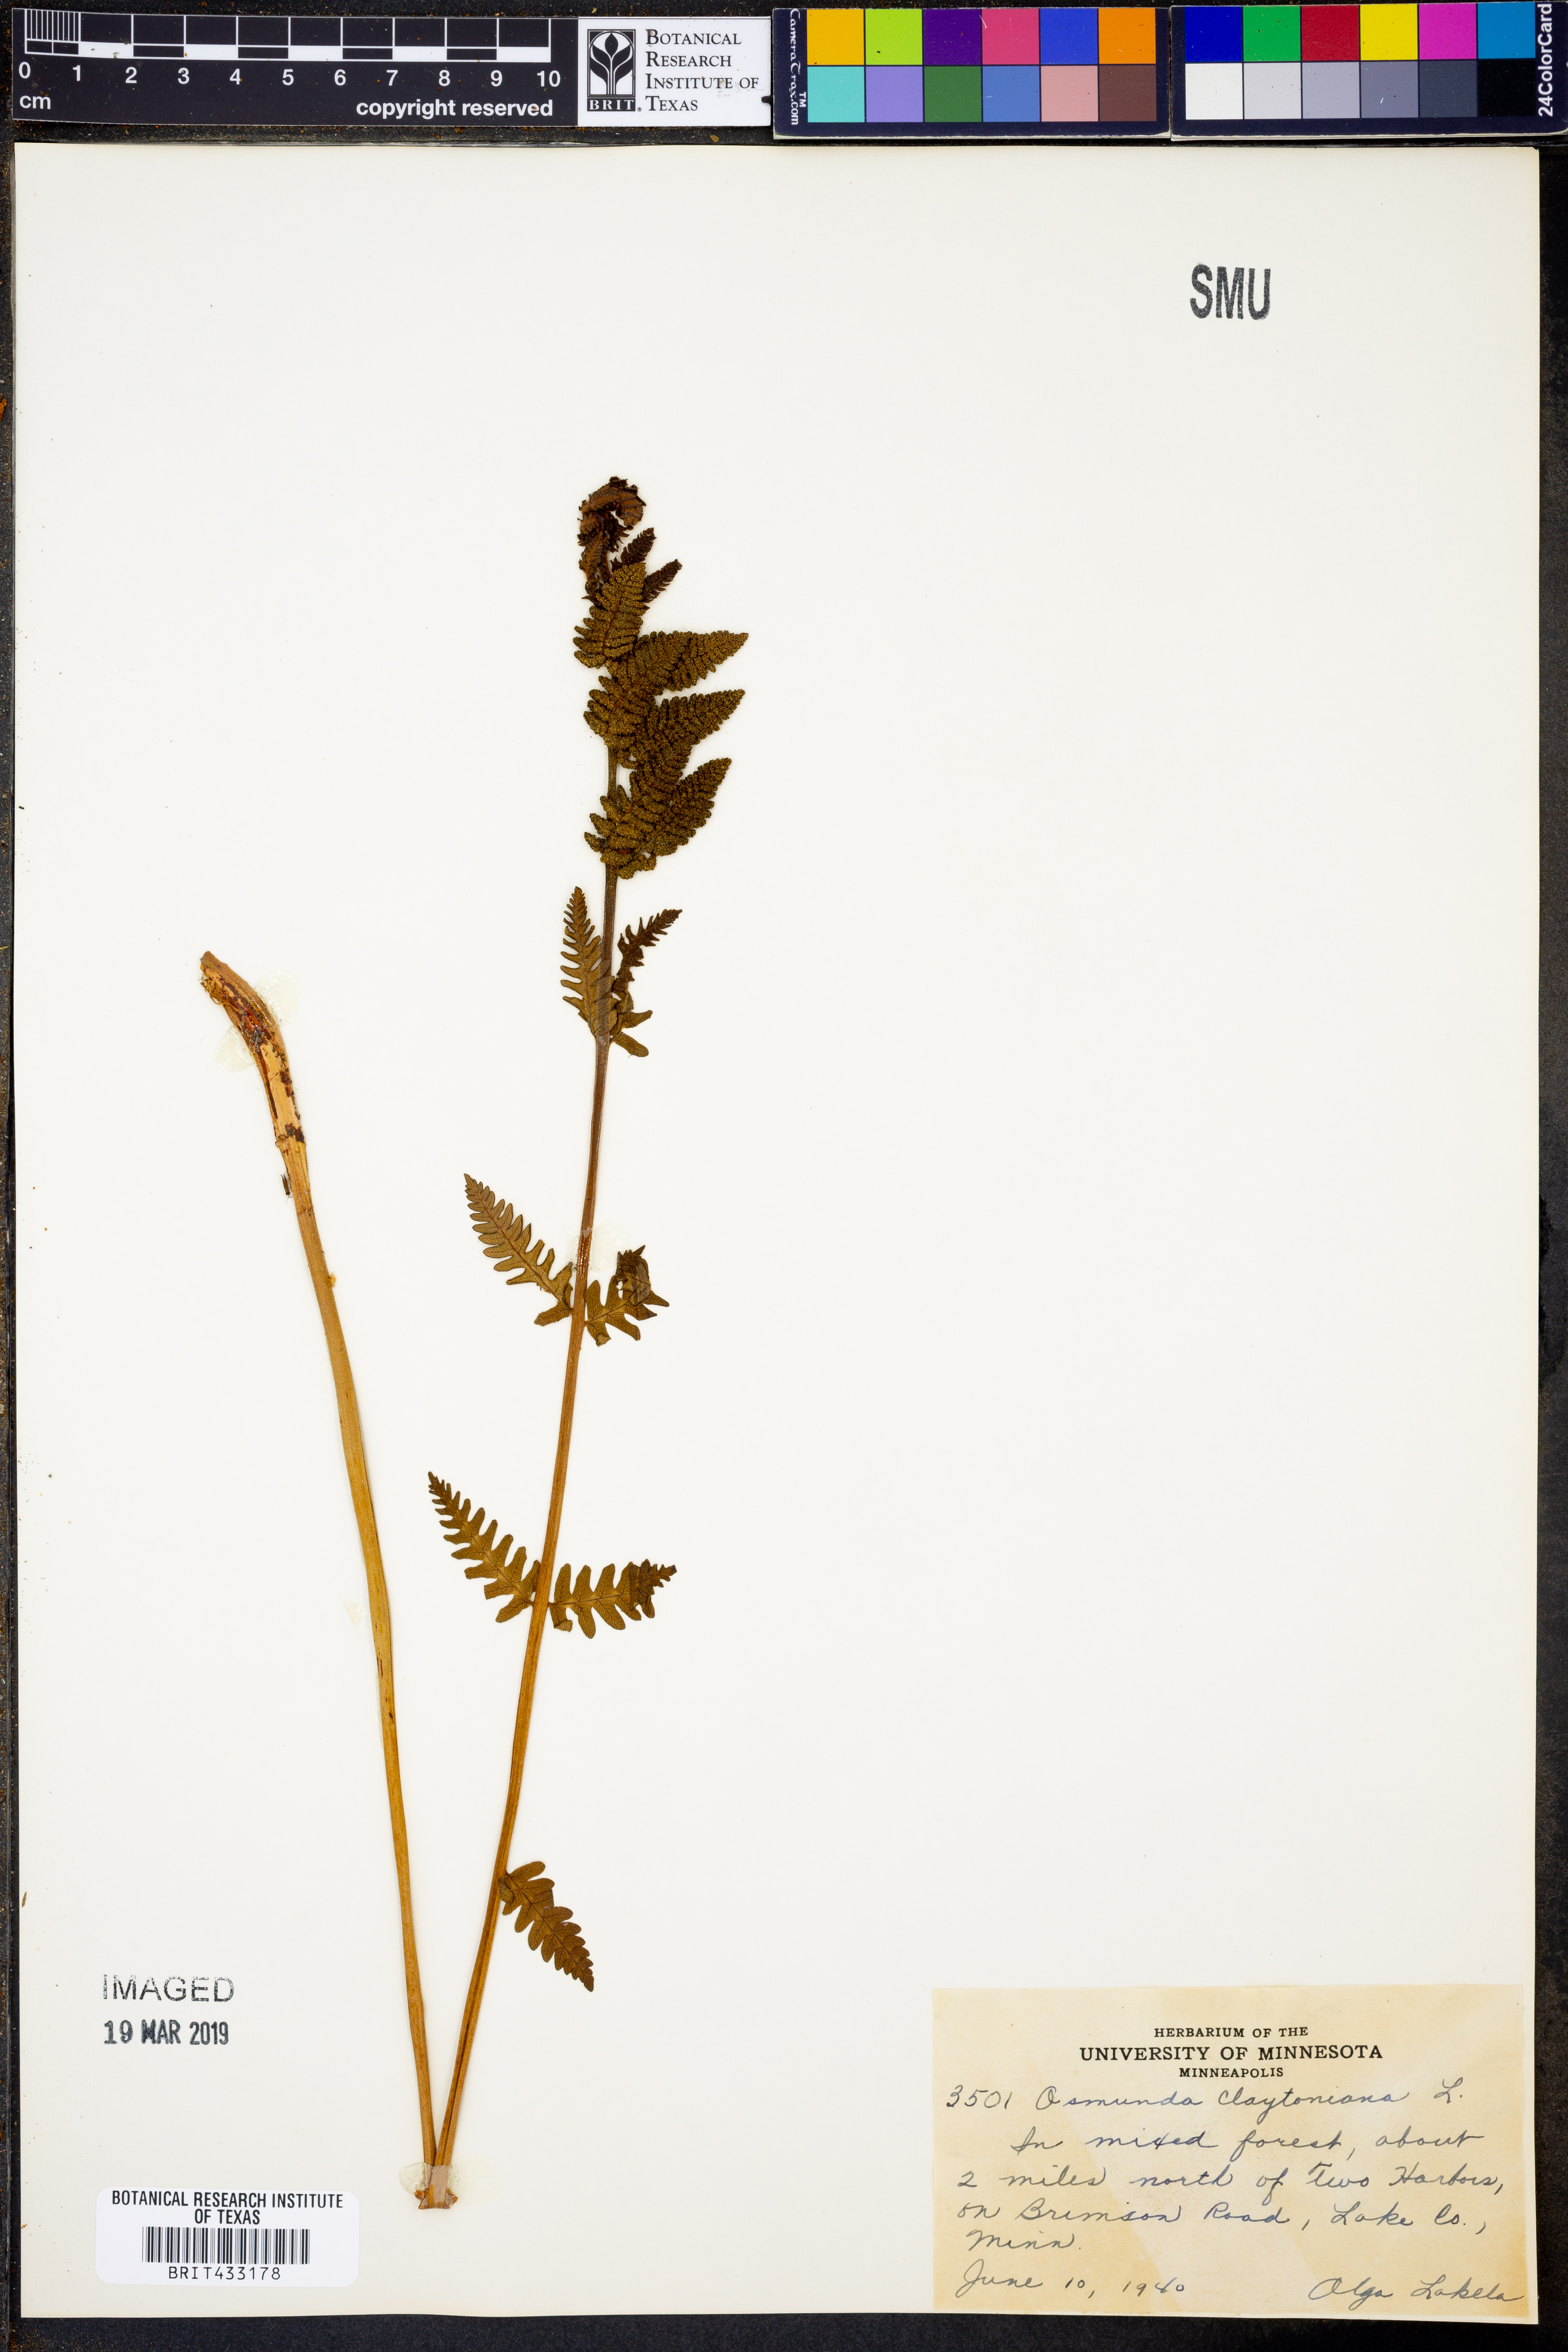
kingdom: Plantae
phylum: Tracheophyta
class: Polypodiopsida
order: Osmundales
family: Osmundaceae
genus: Claytosmunda
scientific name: Claytosmunda claytoniana
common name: Clayton's fern
